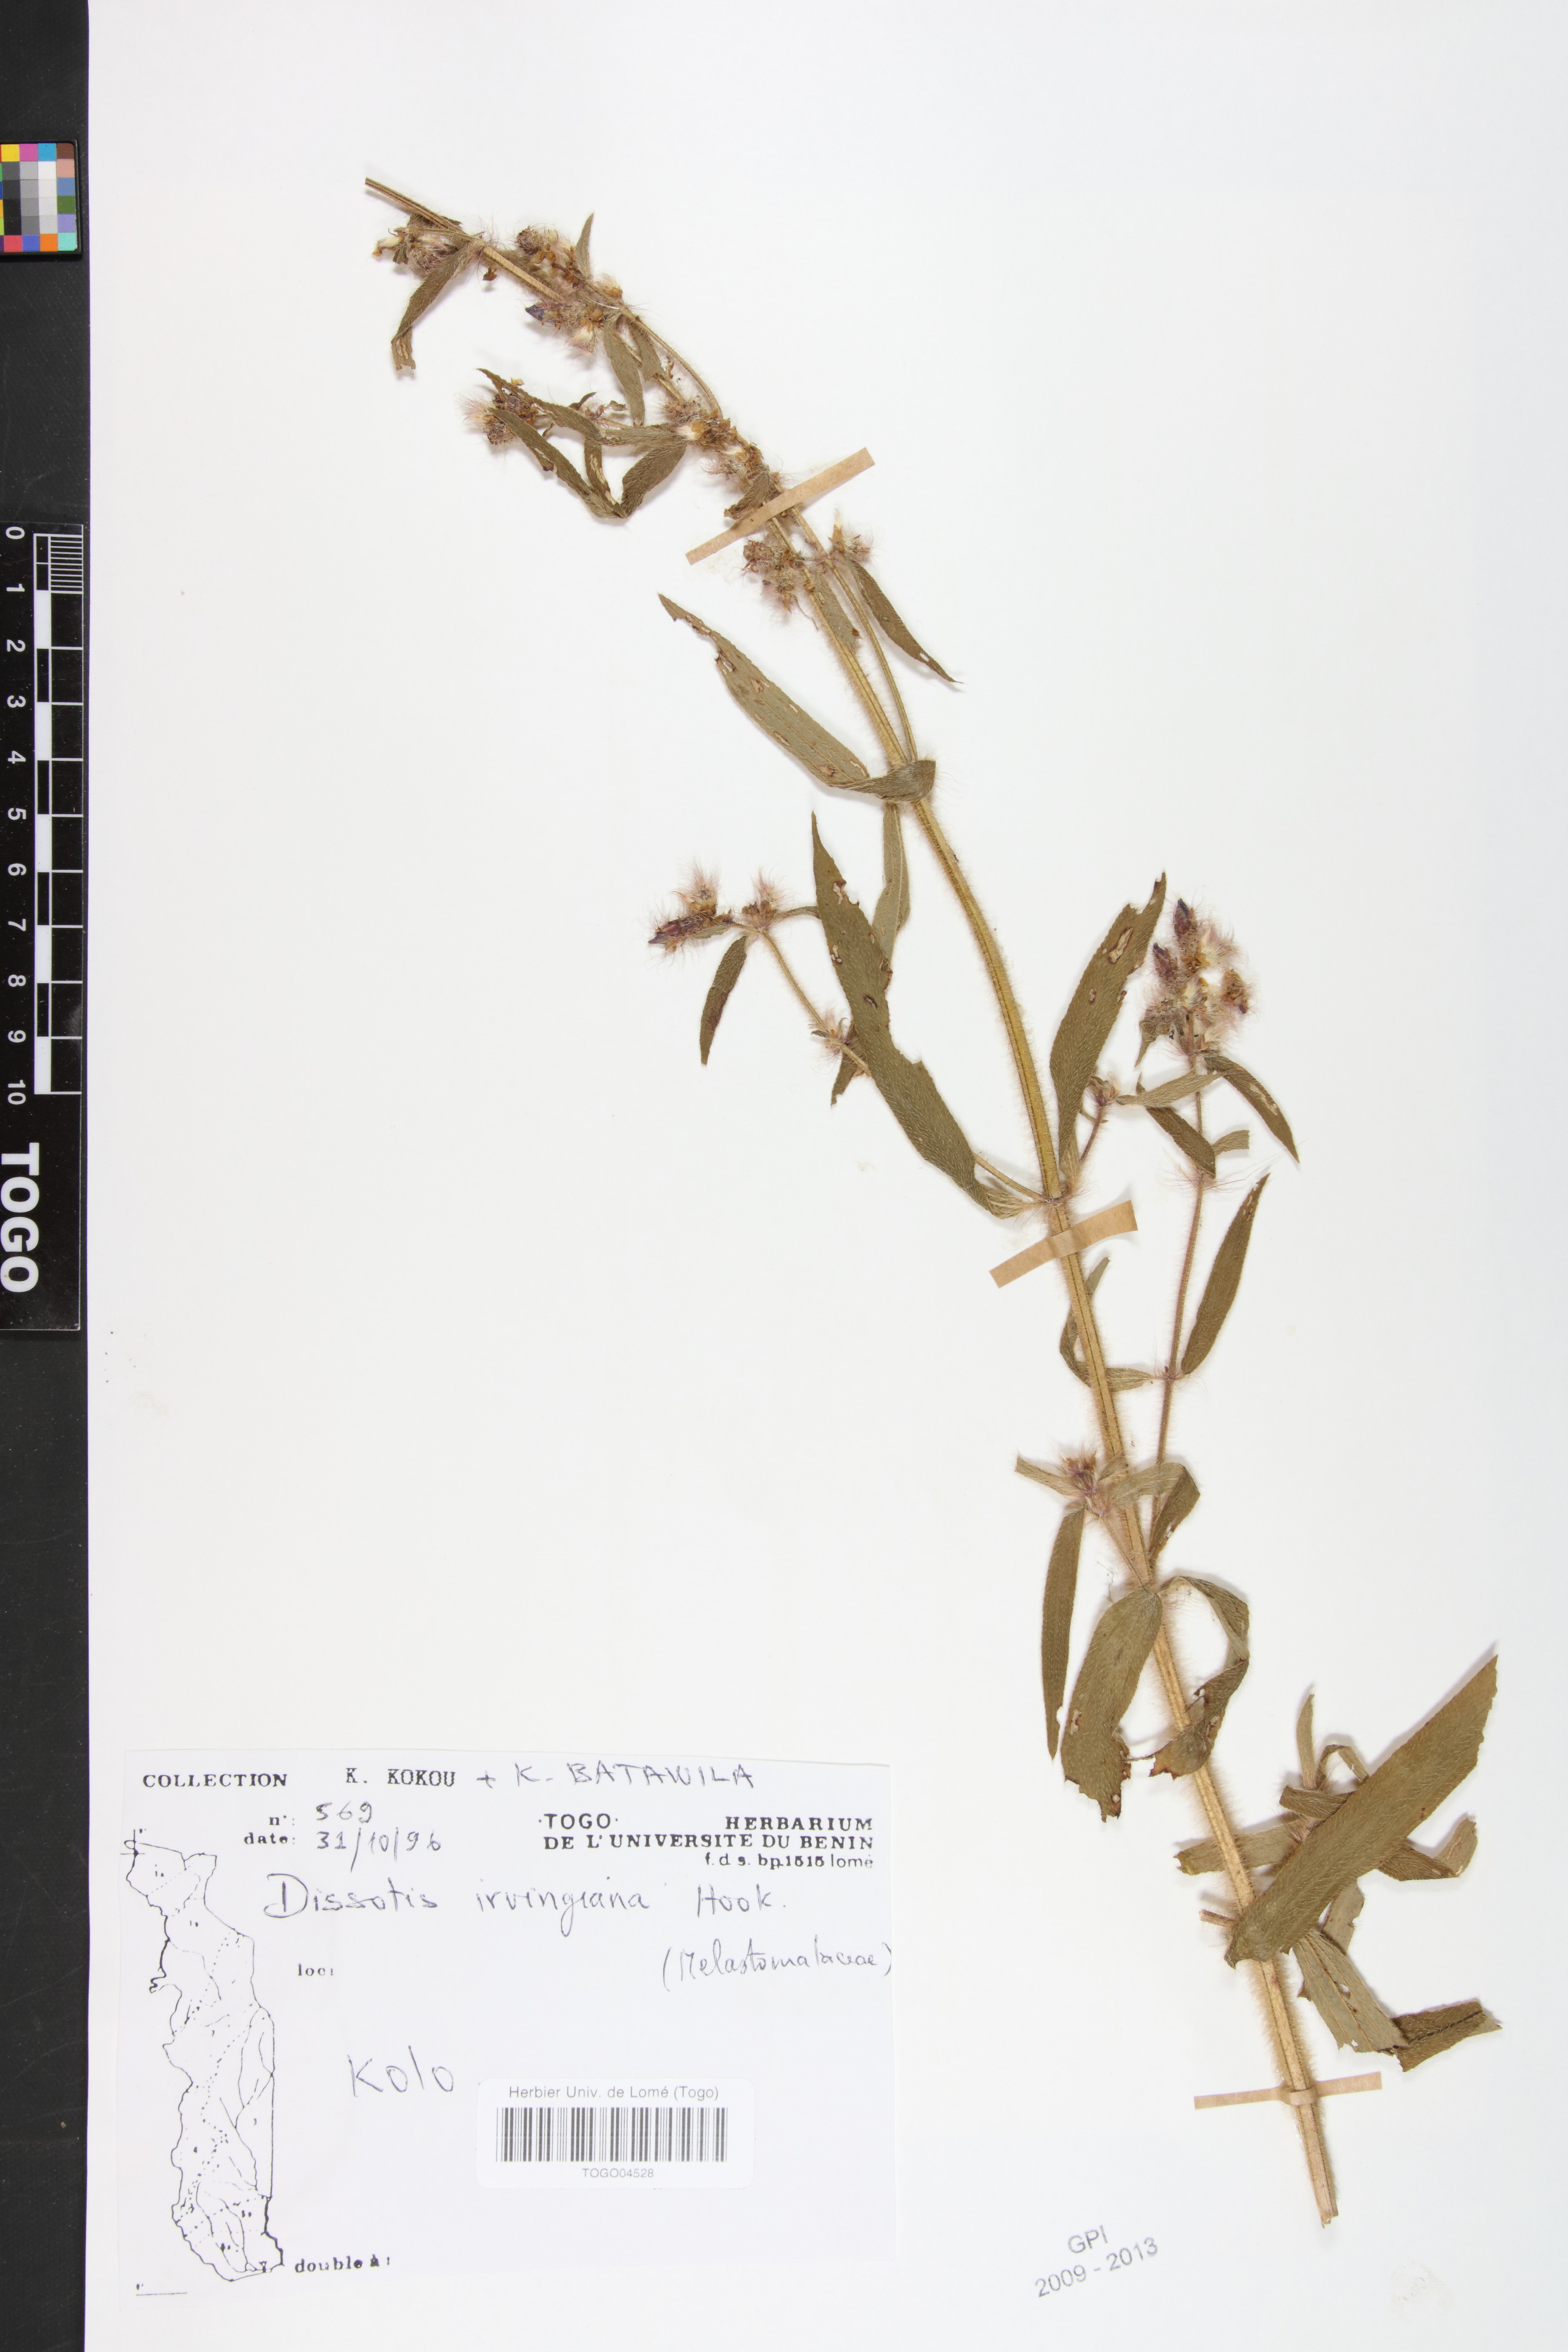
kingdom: Plantae
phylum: Tracheophyta
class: Magnoliopsida
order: Myrtales
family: Melastomataceae
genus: Antherotoma
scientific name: Antherotoma irvingiana
